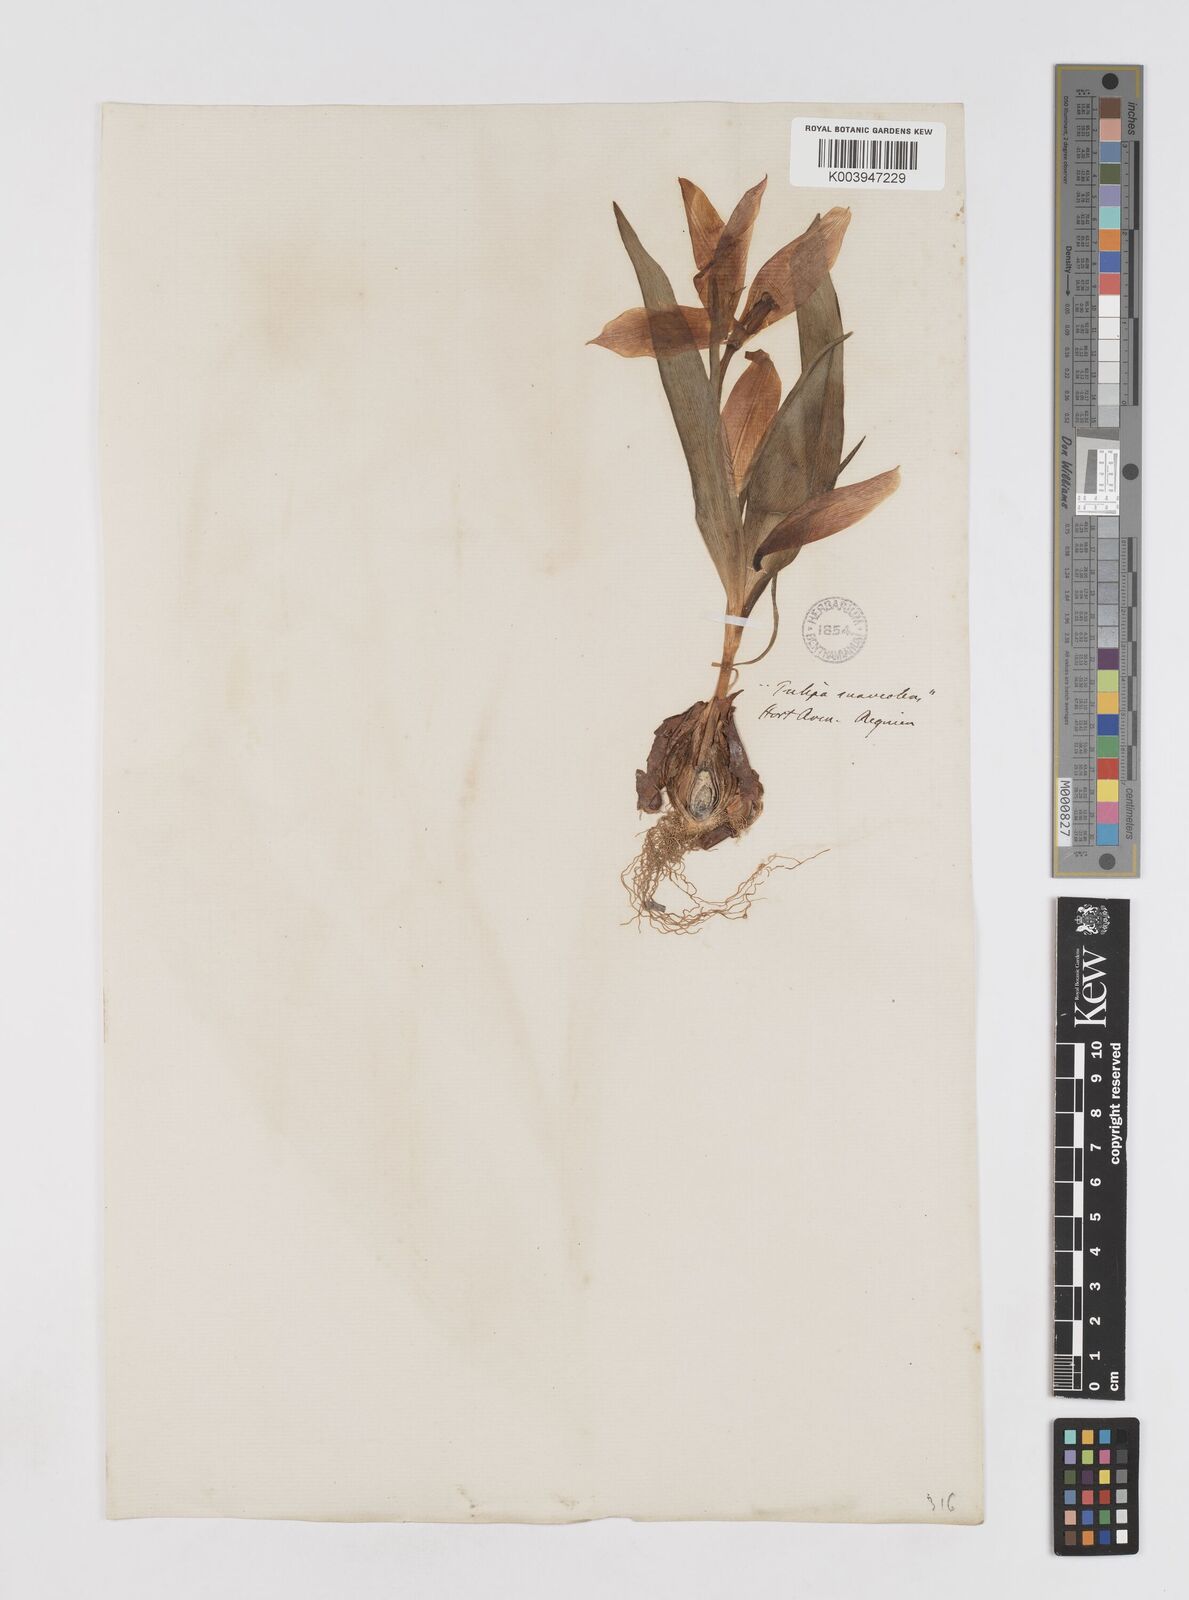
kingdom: Plantae
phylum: Tracheophyta
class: Liliopsida
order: Liliales
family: Liliaceae
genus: Tulipa
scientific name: Tulipa suaveolens
